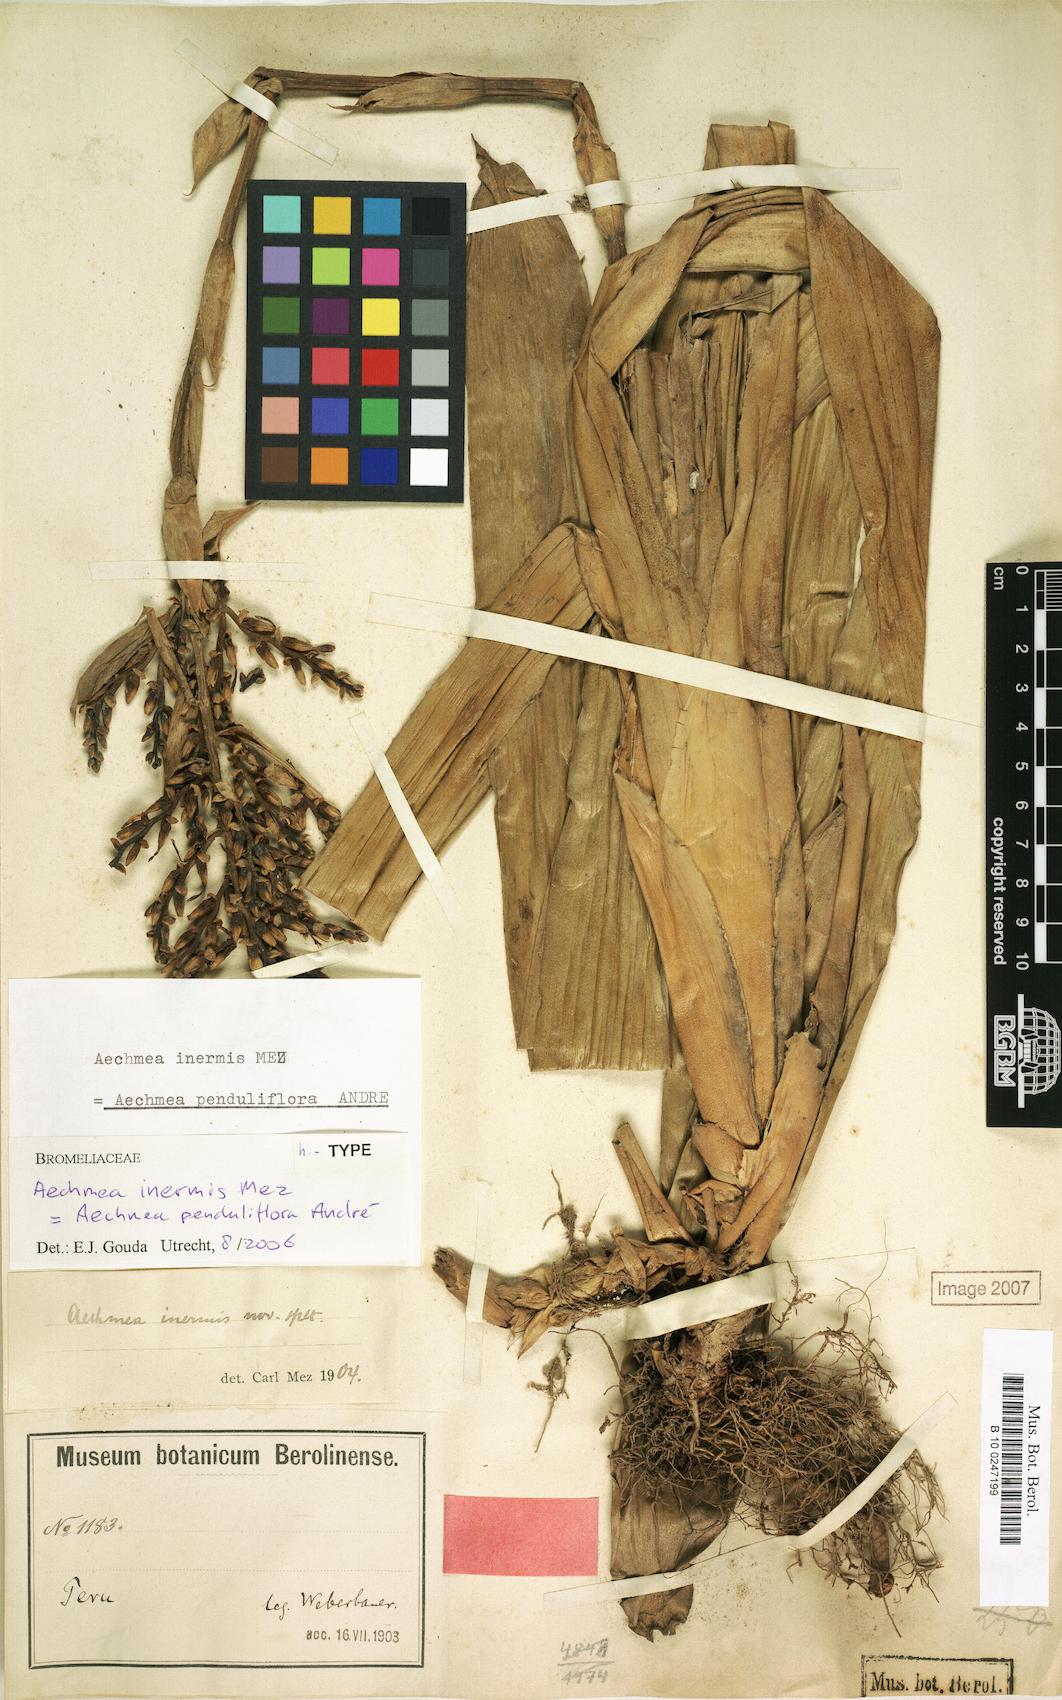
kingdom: Plantae
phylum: Tracheophyta
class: Liliopsida
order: Poales
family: Bromeliaceae
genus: Aechmea
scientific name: Aechmea penduliflora
